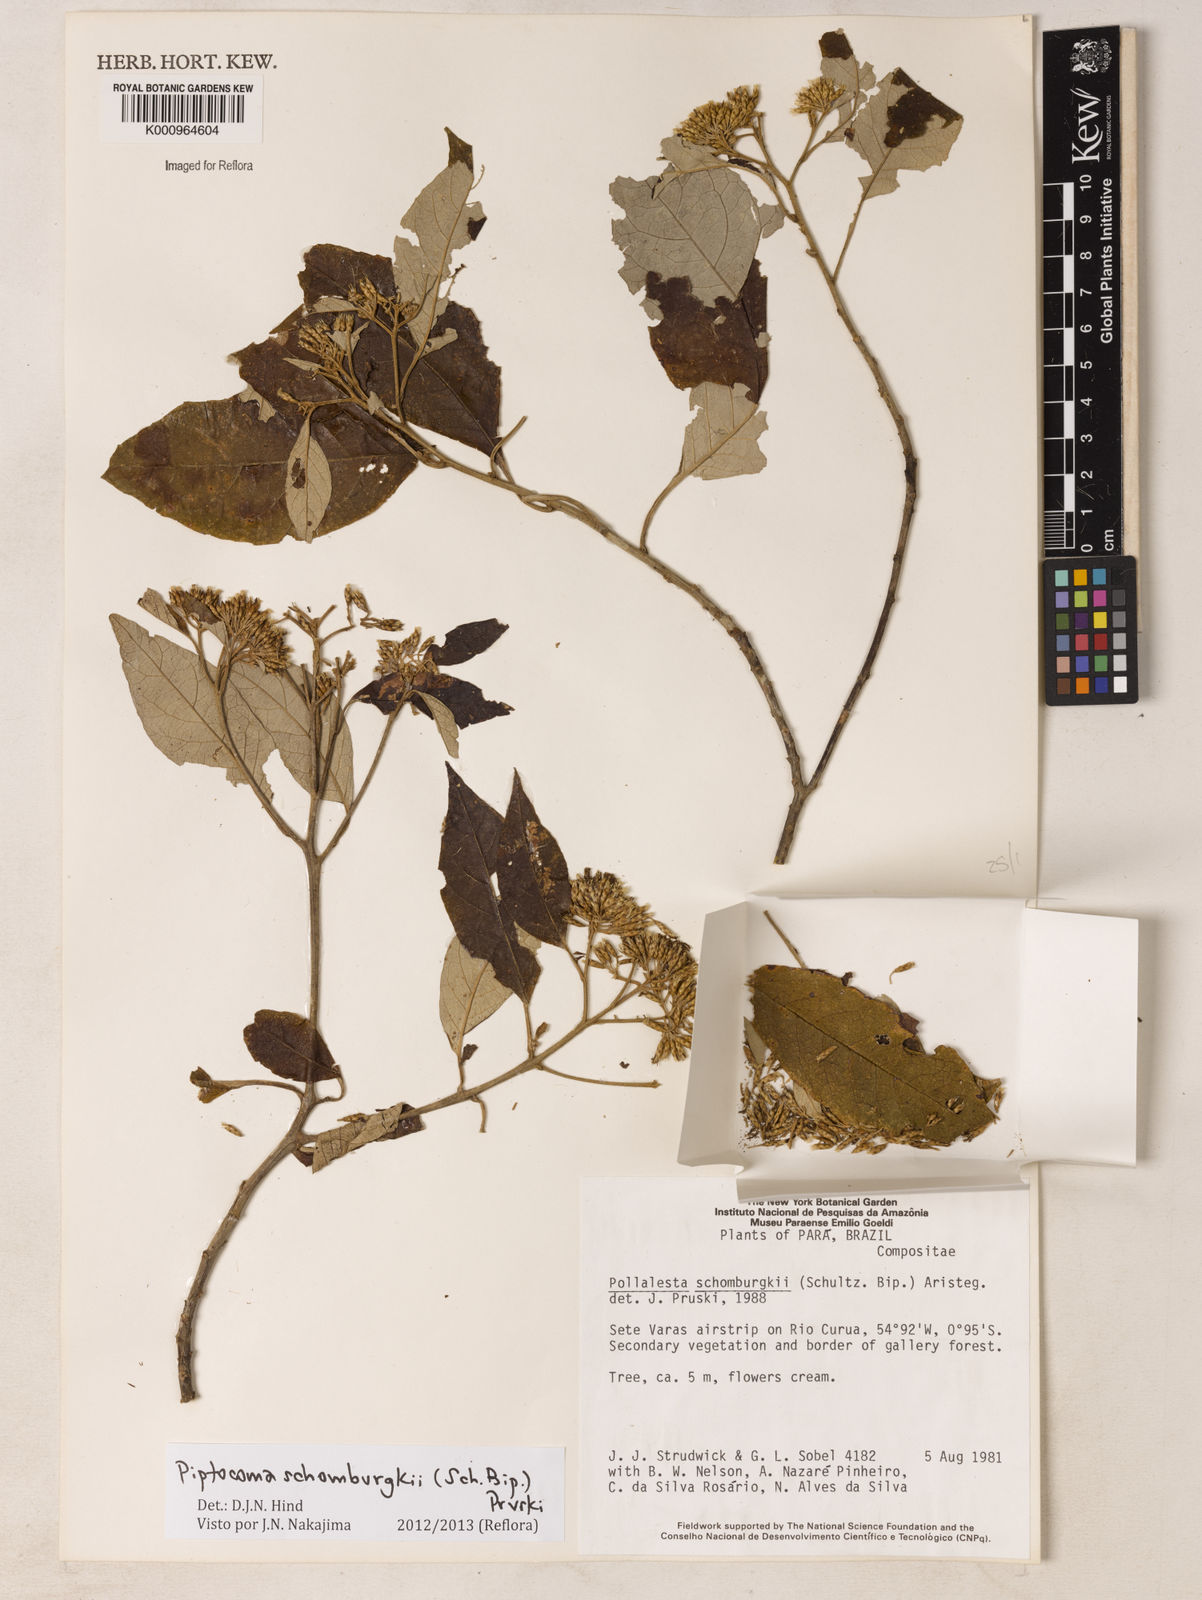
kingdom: Plantae
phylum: Tracheophyta
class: Magnoliopsida
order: Asterales
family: Asteraceae
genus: Piptocoma
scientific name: Piptocoma schomburgkii
